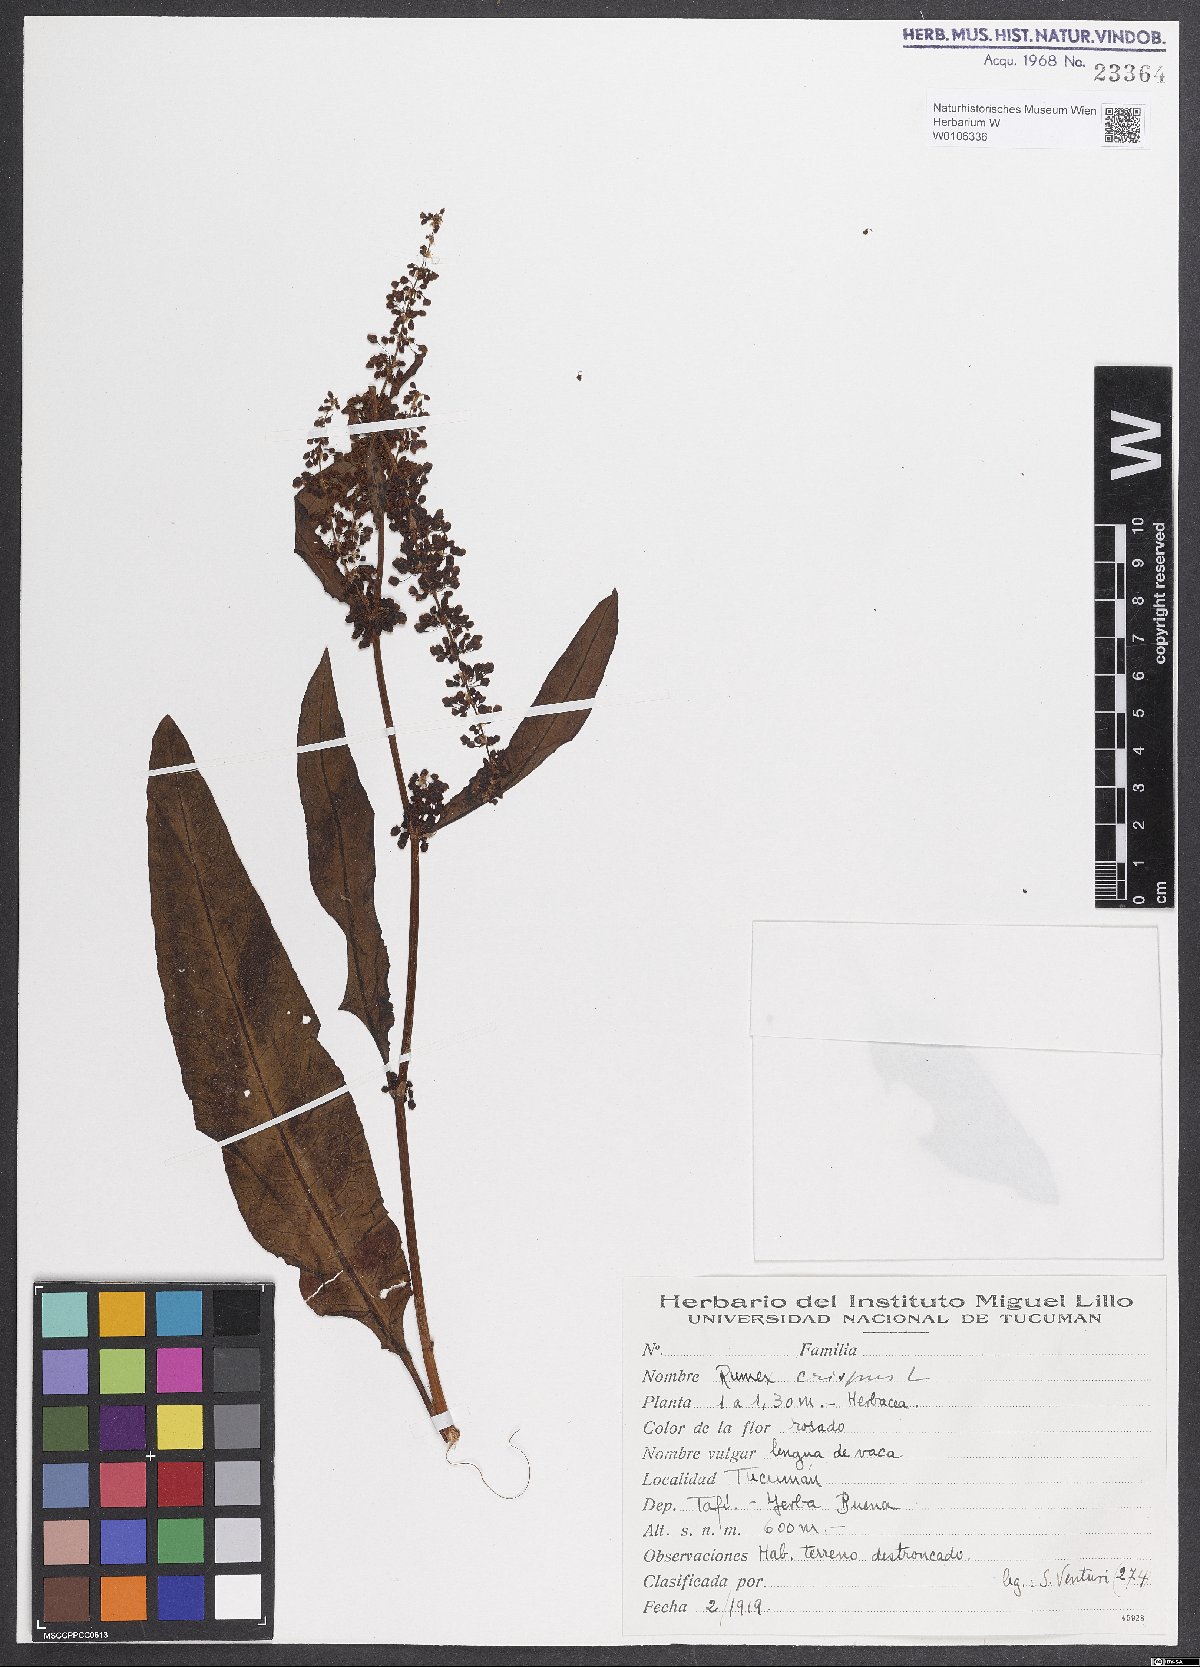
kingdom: Plantae
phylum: Tracheophyta
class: Magnoliopsida
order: Caryophyllales
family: Polygonaceae
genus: Rumex
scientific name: Rumex crispus
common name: Curled dock
